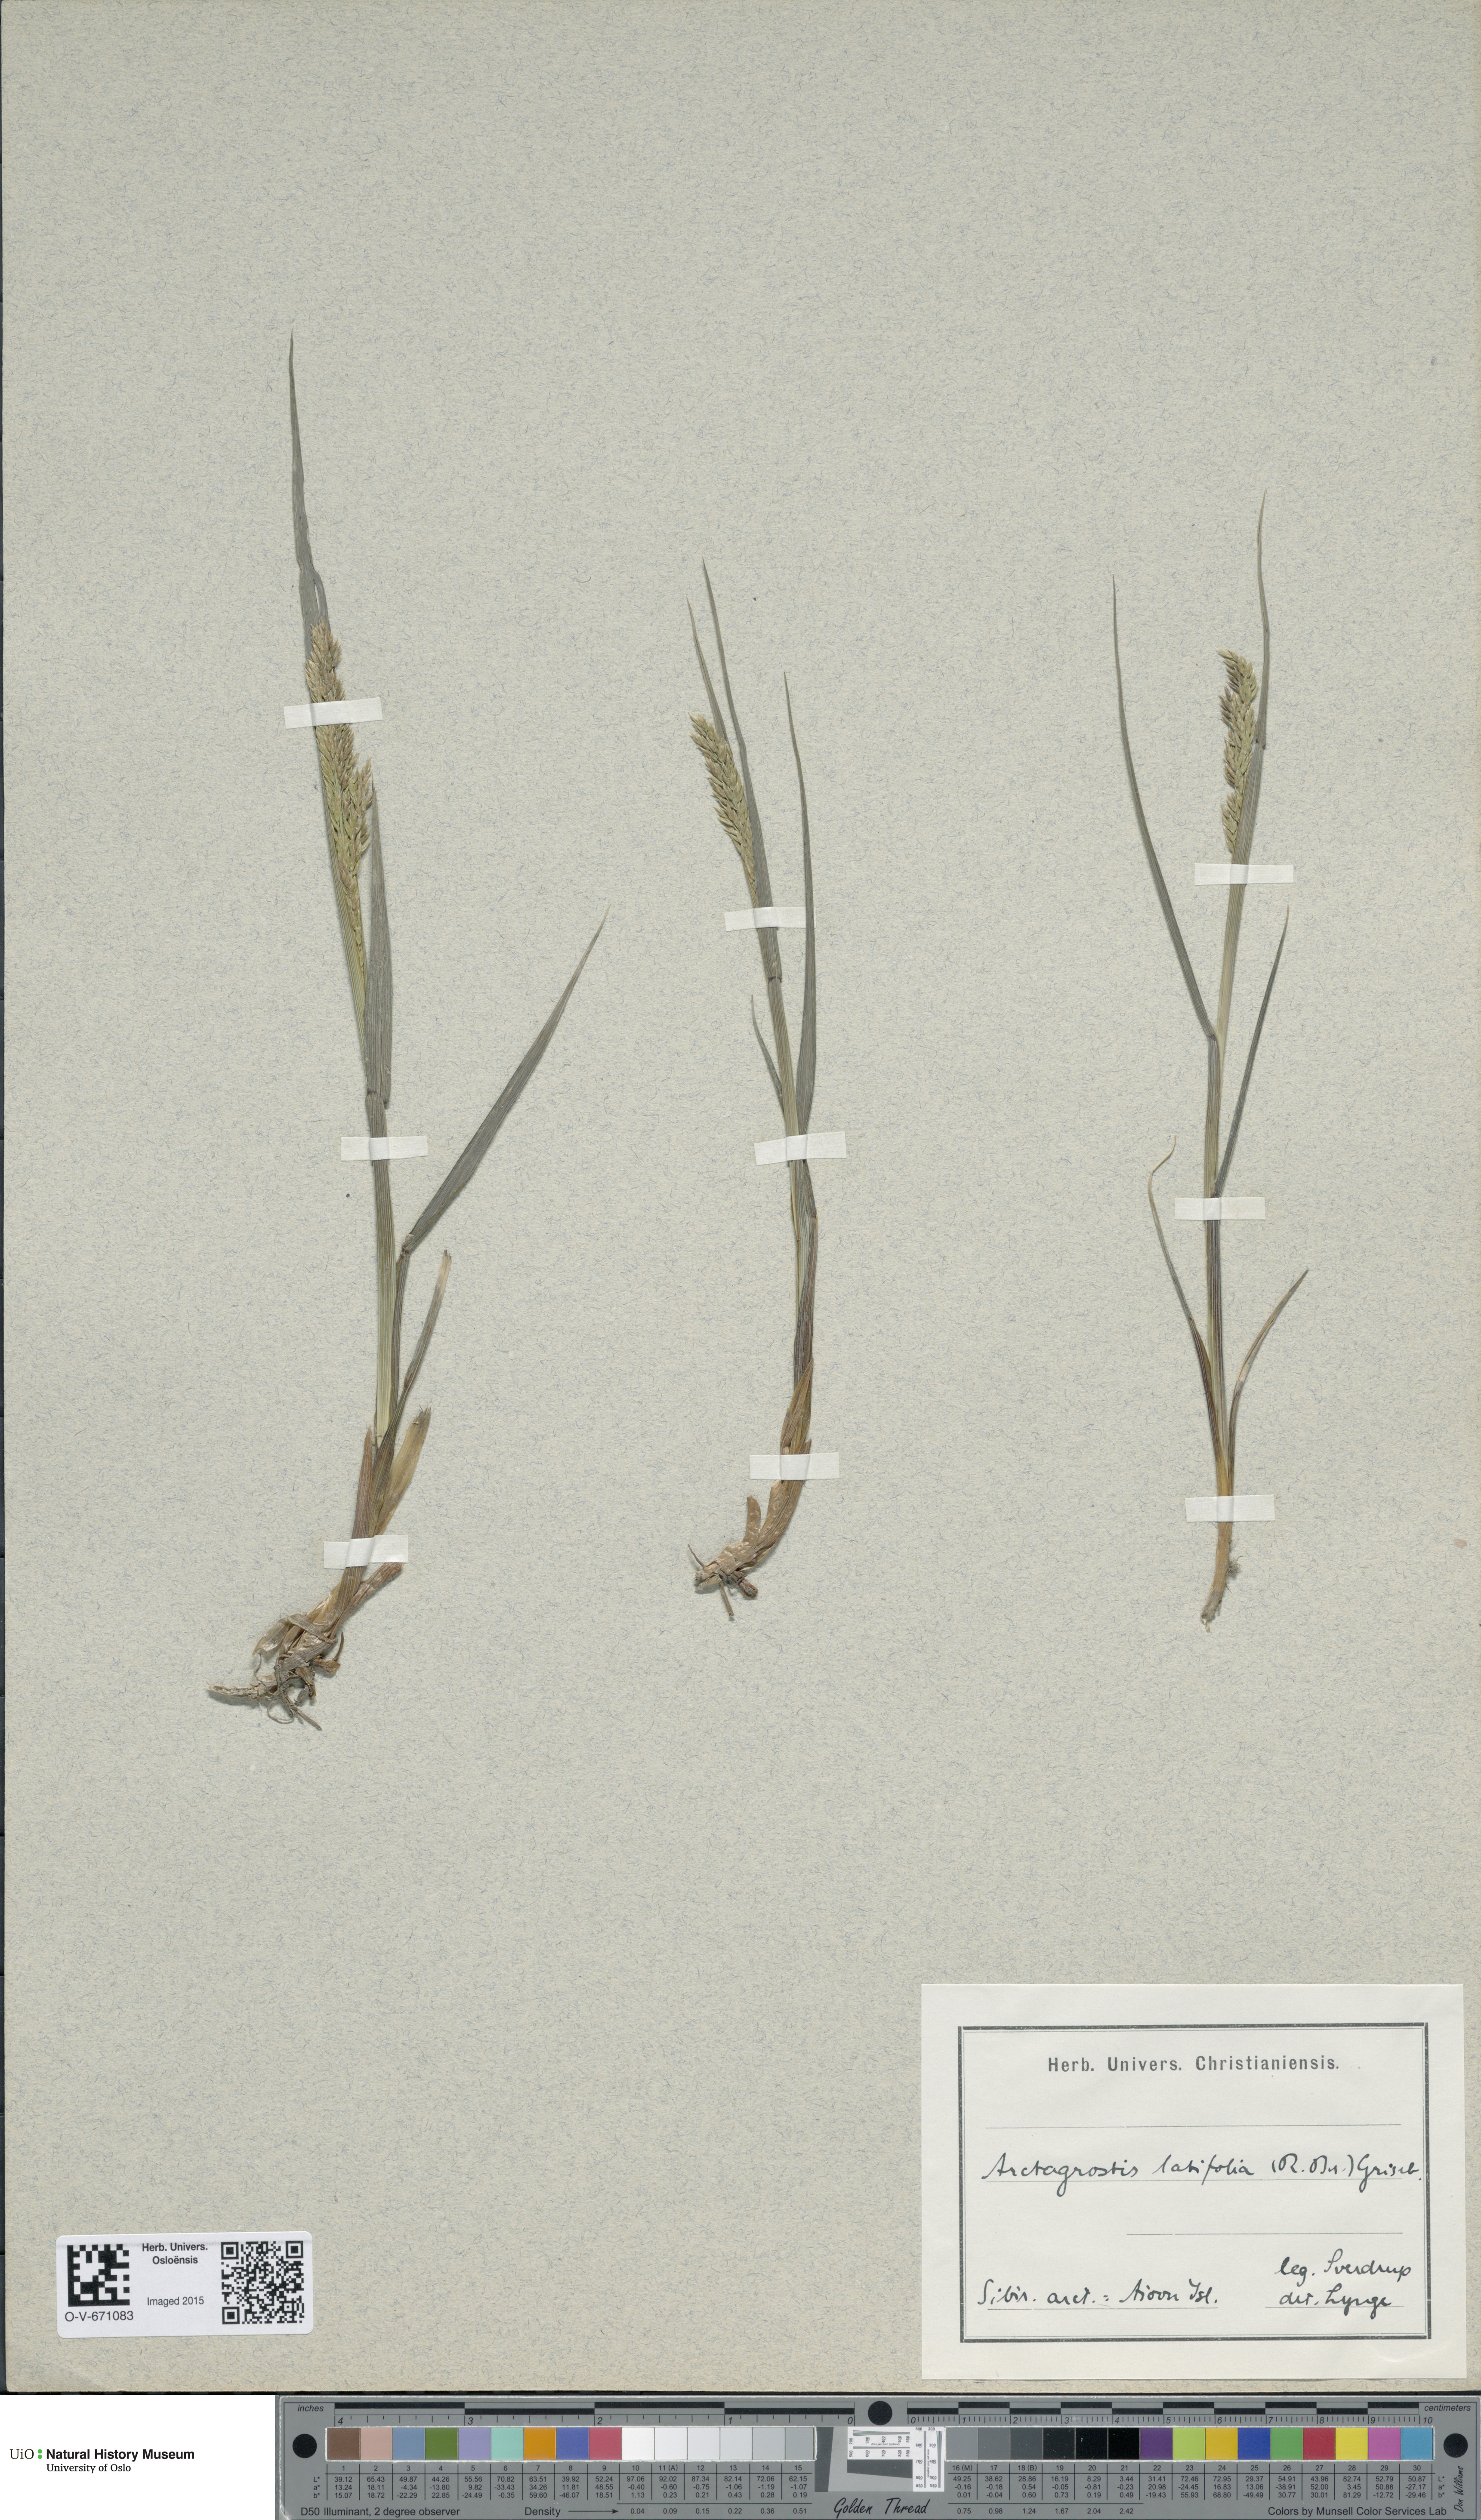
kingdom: Plantae
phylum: Tracheophyta
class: Liliopsida
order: Poales
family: Poaceae
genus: Arctagrostis
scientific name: Arctagrostis latifolia
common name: Arctic grass
